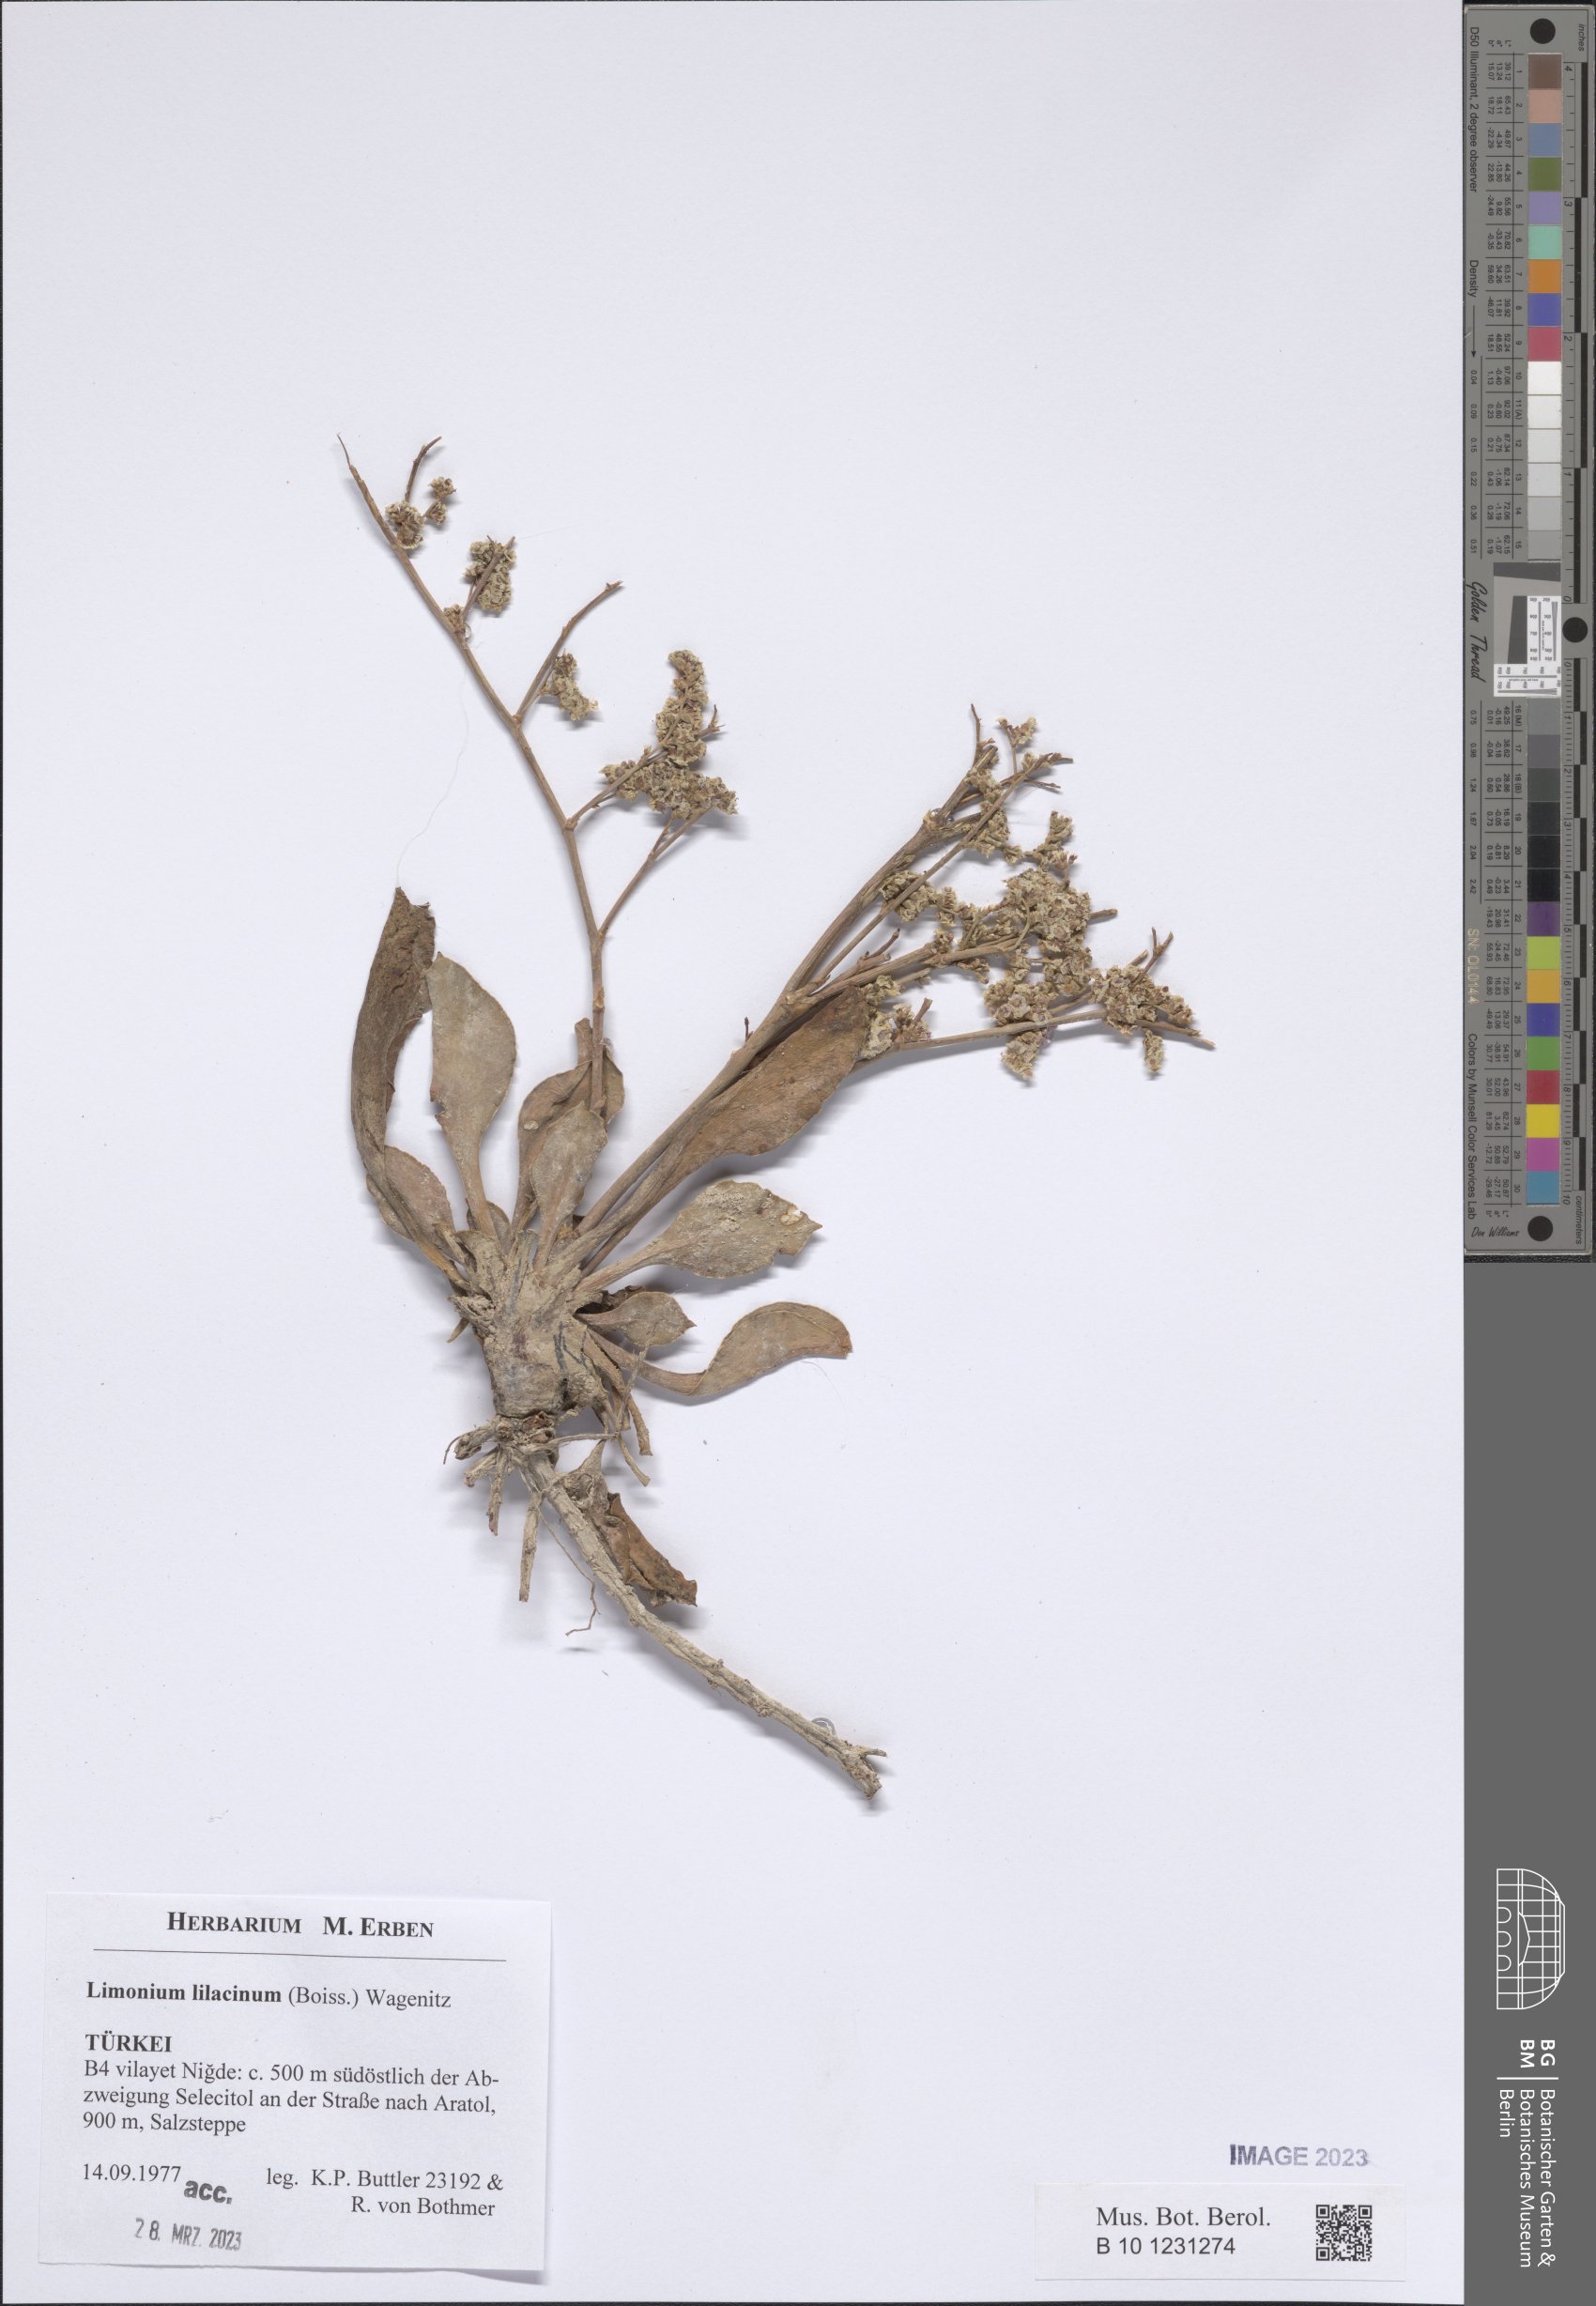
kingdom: Plantae
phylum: Tracheophyta
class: Magnoliopsida
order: Caryophyllales
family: Plumbaginaceae
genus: Limonium
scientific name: Limonium lilacinum
